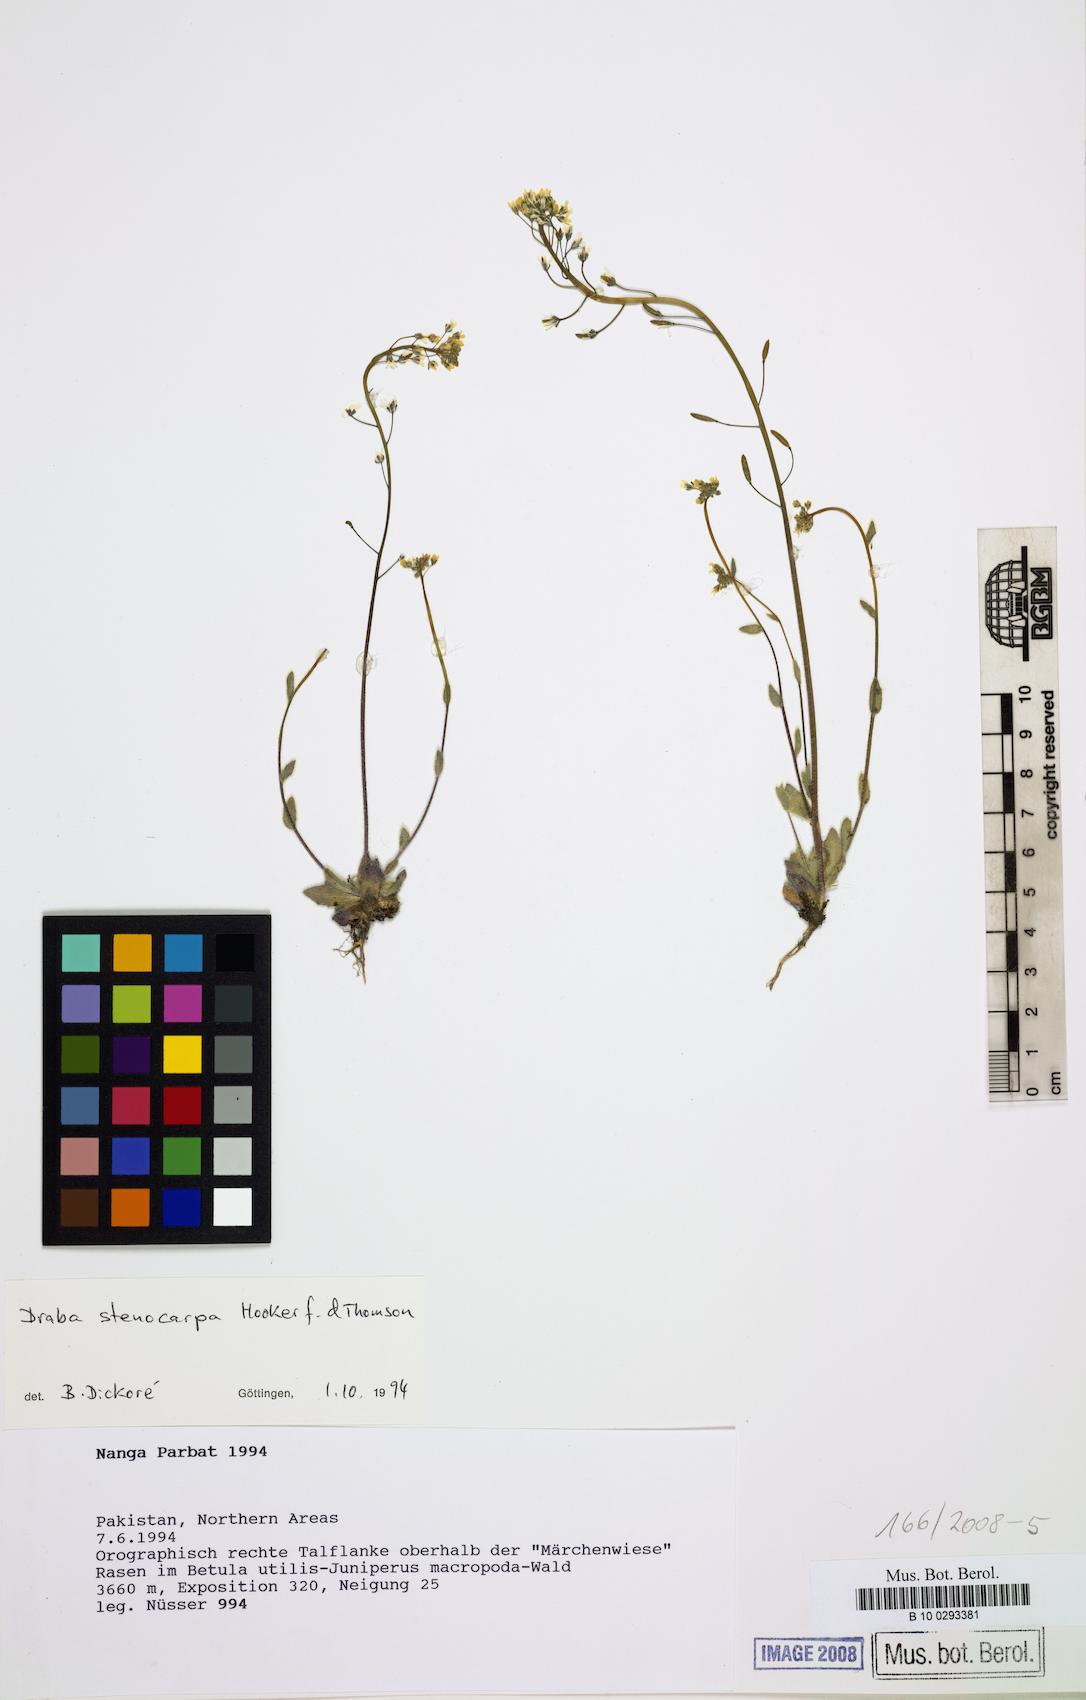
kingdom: Plantae
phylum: Tracheophyta
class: Magnoliopsida
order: Brassicales
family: Brassicaceae
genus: Draba
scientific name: Draba stenocarpa
